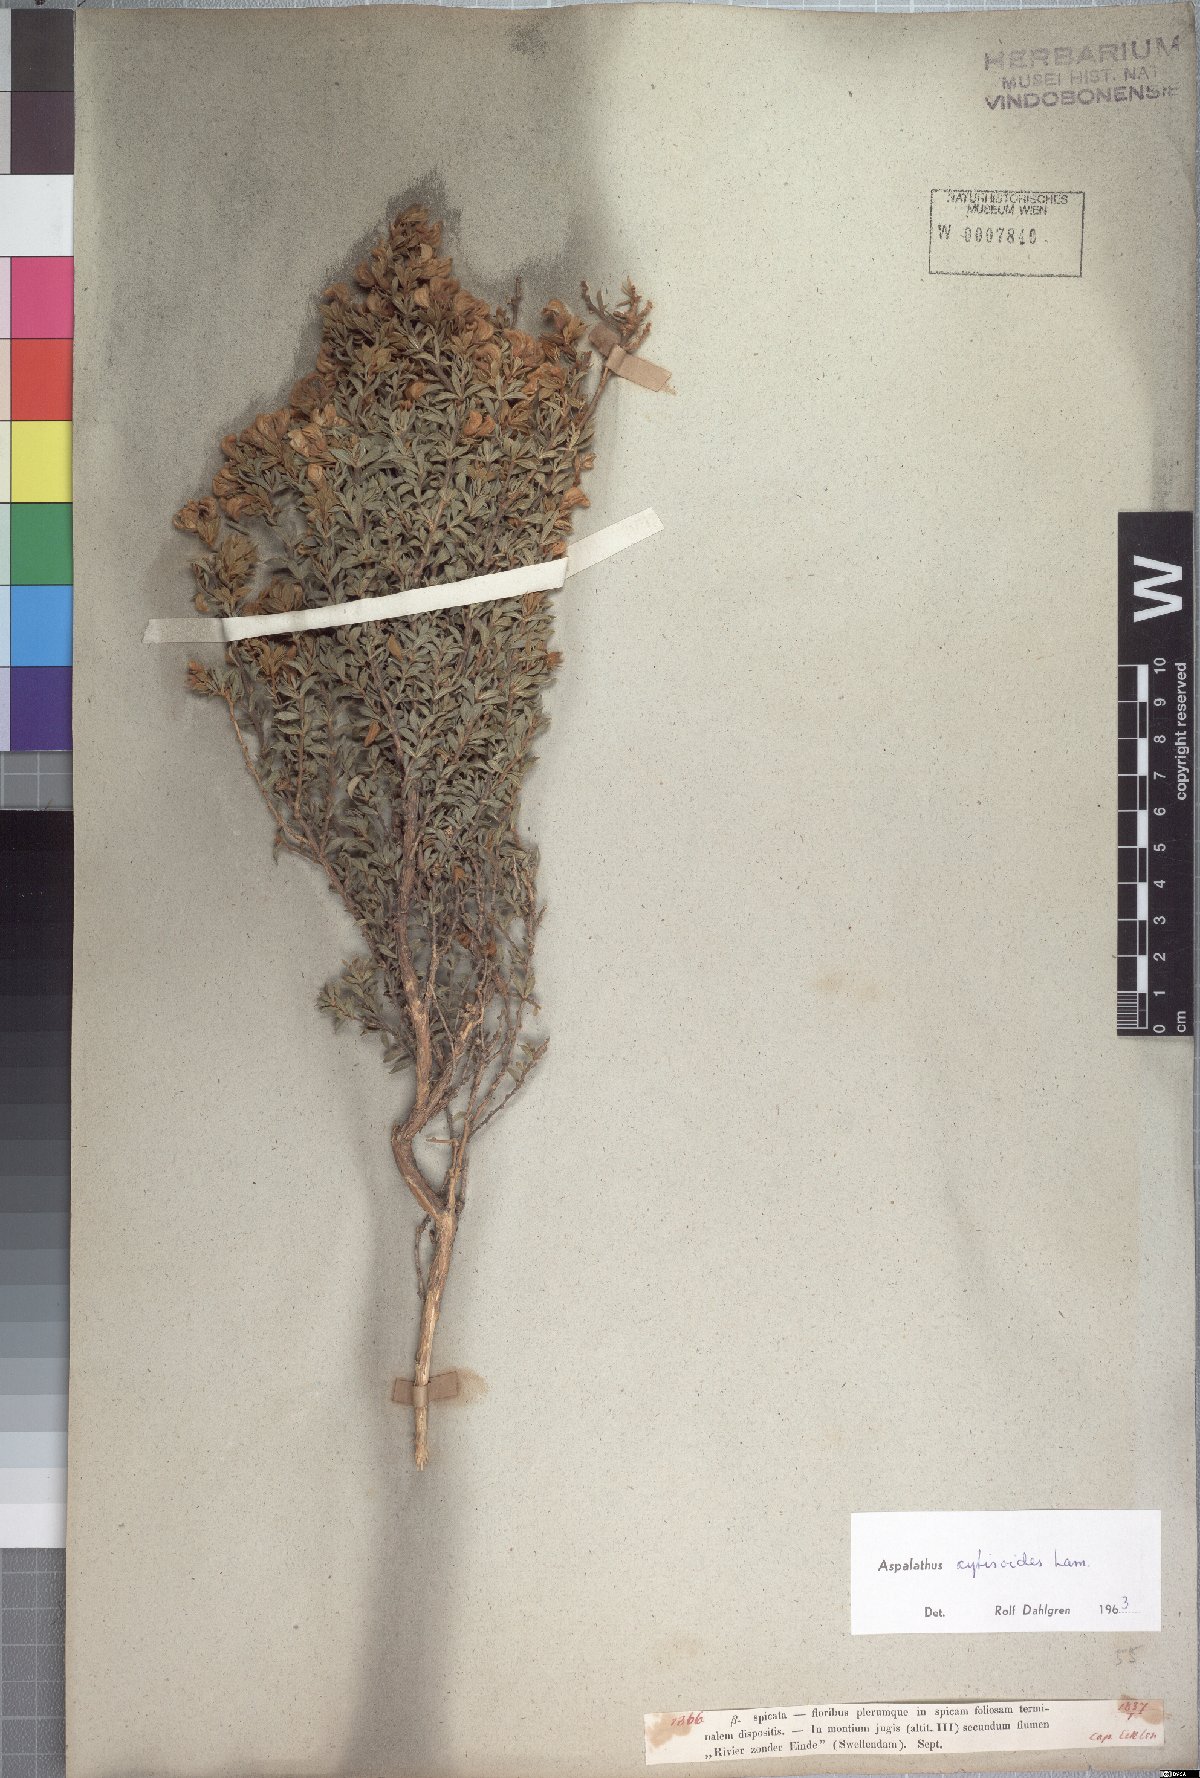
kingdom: Plantae
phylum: Tracheophyta
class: Magnoliopsida
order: Fabales
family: Fabaceae
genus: Aspalathus
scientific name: Aspalathus cytisoides
